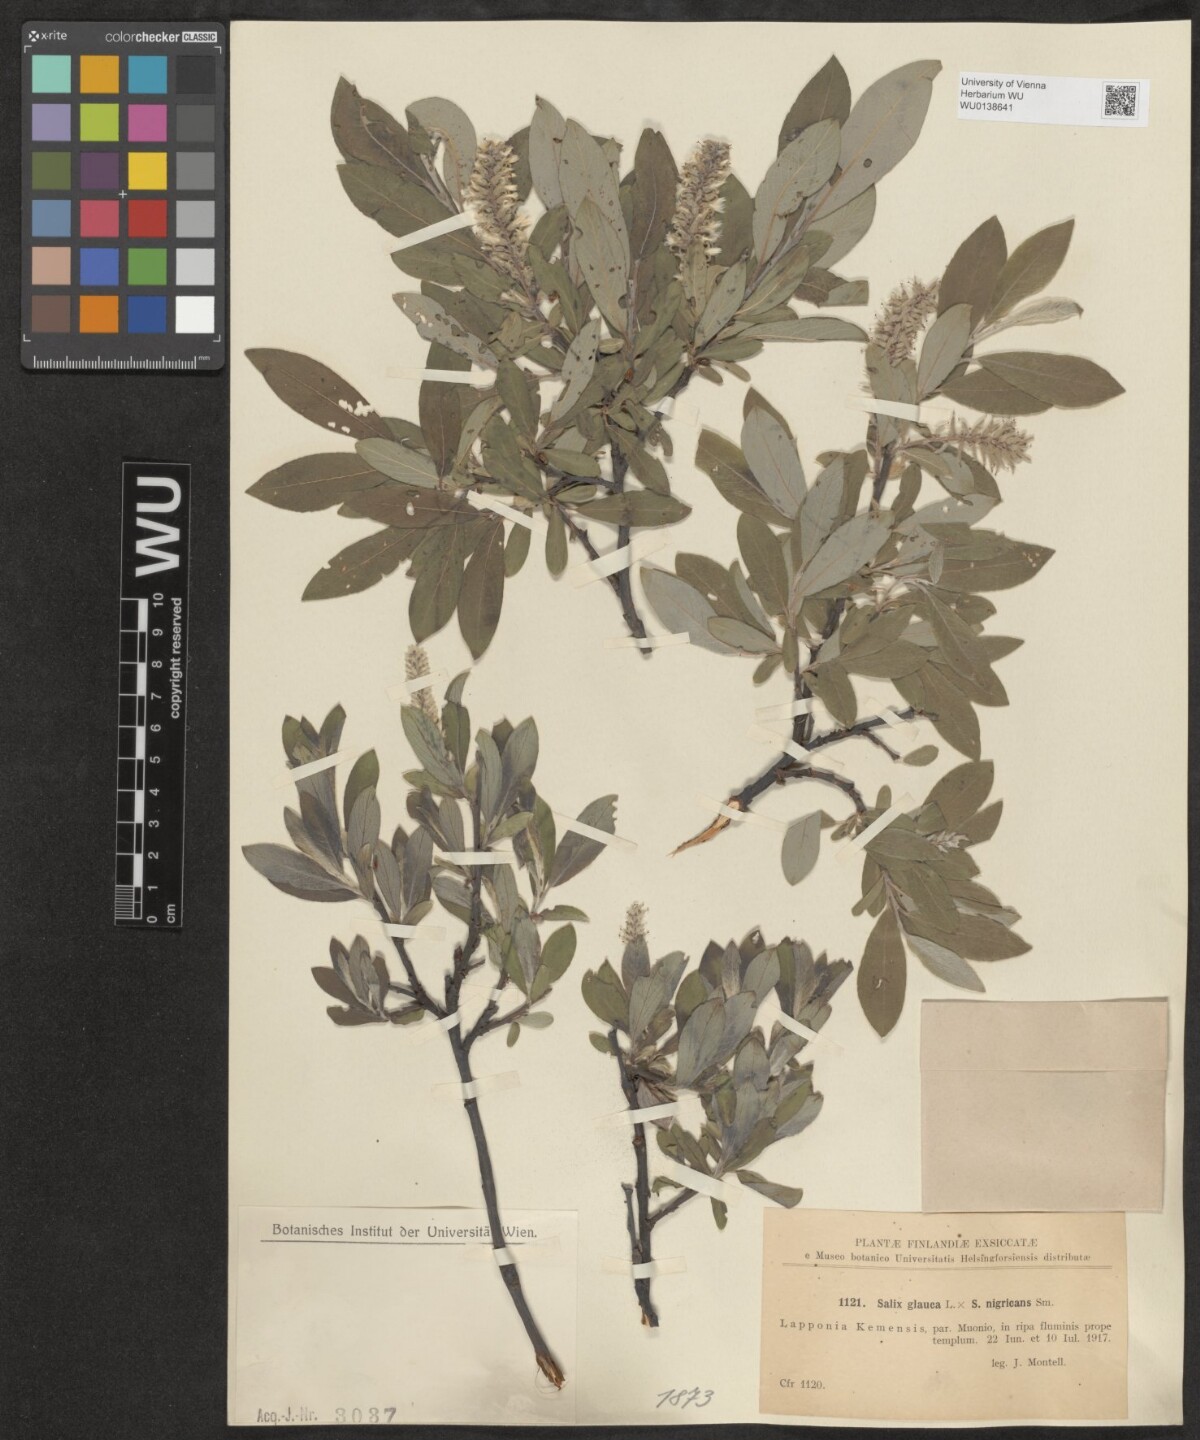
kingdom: Plantae
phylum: Tracheophyta
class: Magnoliopsida
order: Malpighiales
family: Salicaceae
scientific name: Salicaceae
